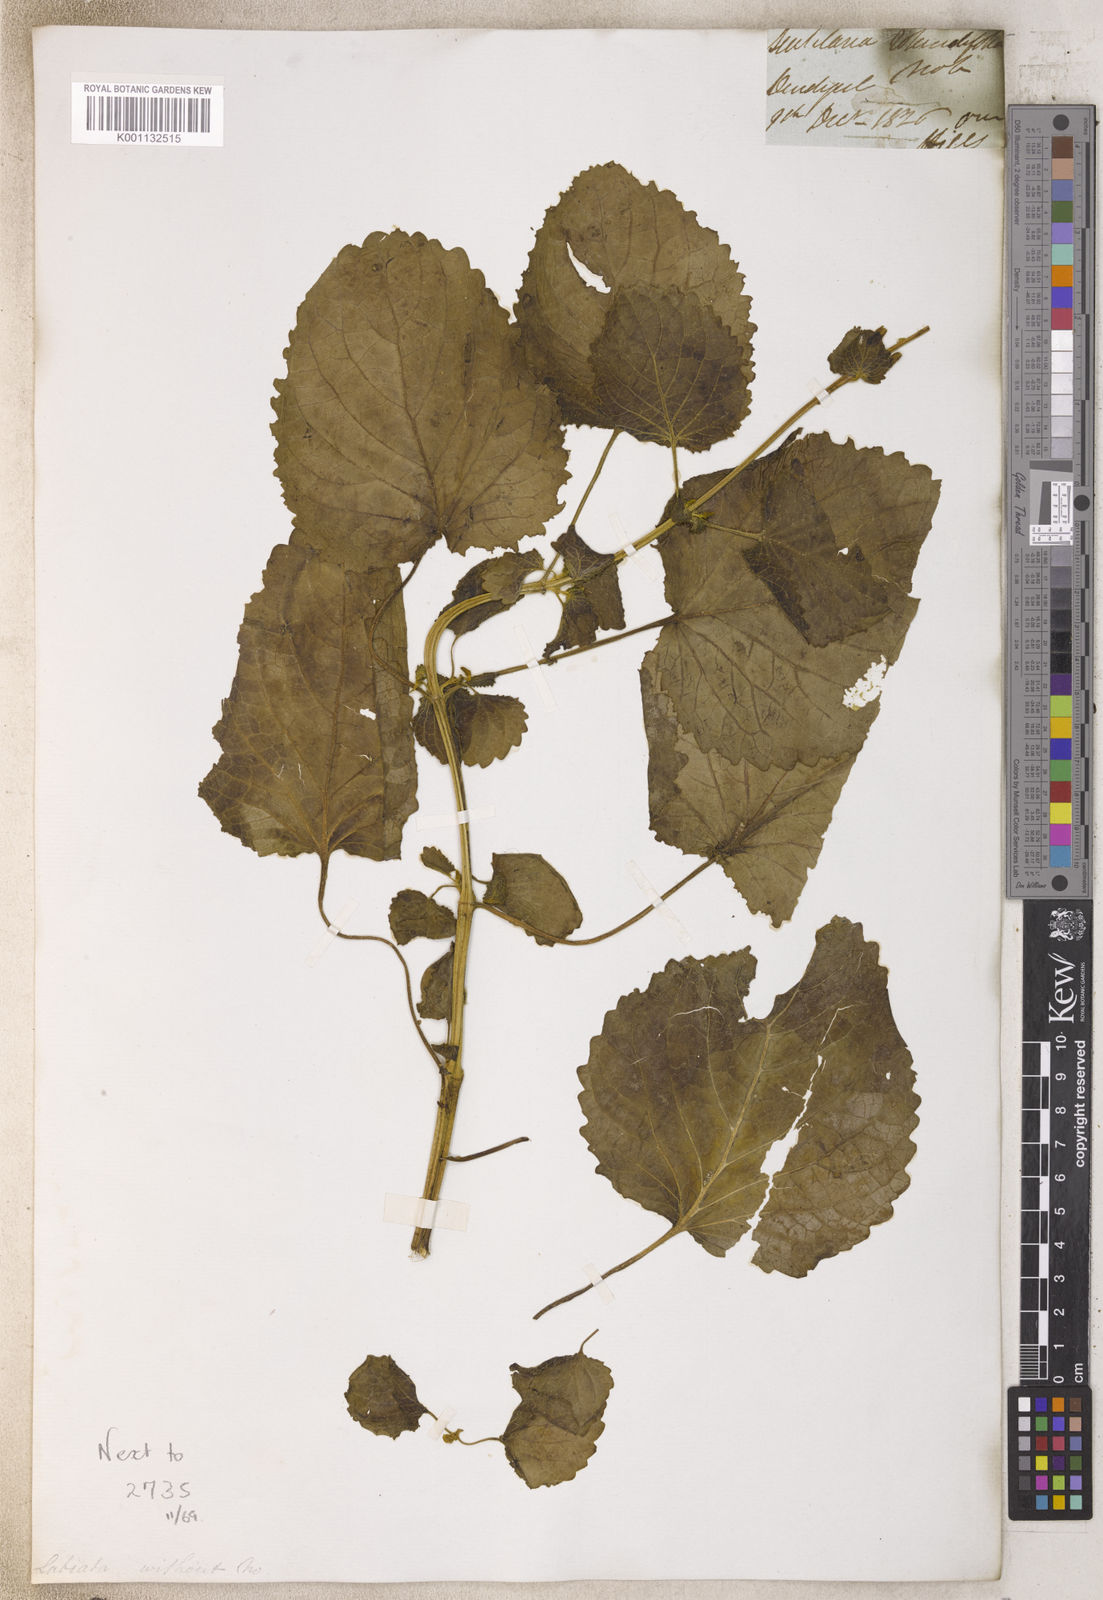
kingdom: Plantae
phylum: Tracheophyta
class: Magnoliopsida
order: Lamiales
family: Lamiaceae
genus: Coleus
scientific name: Coleus
